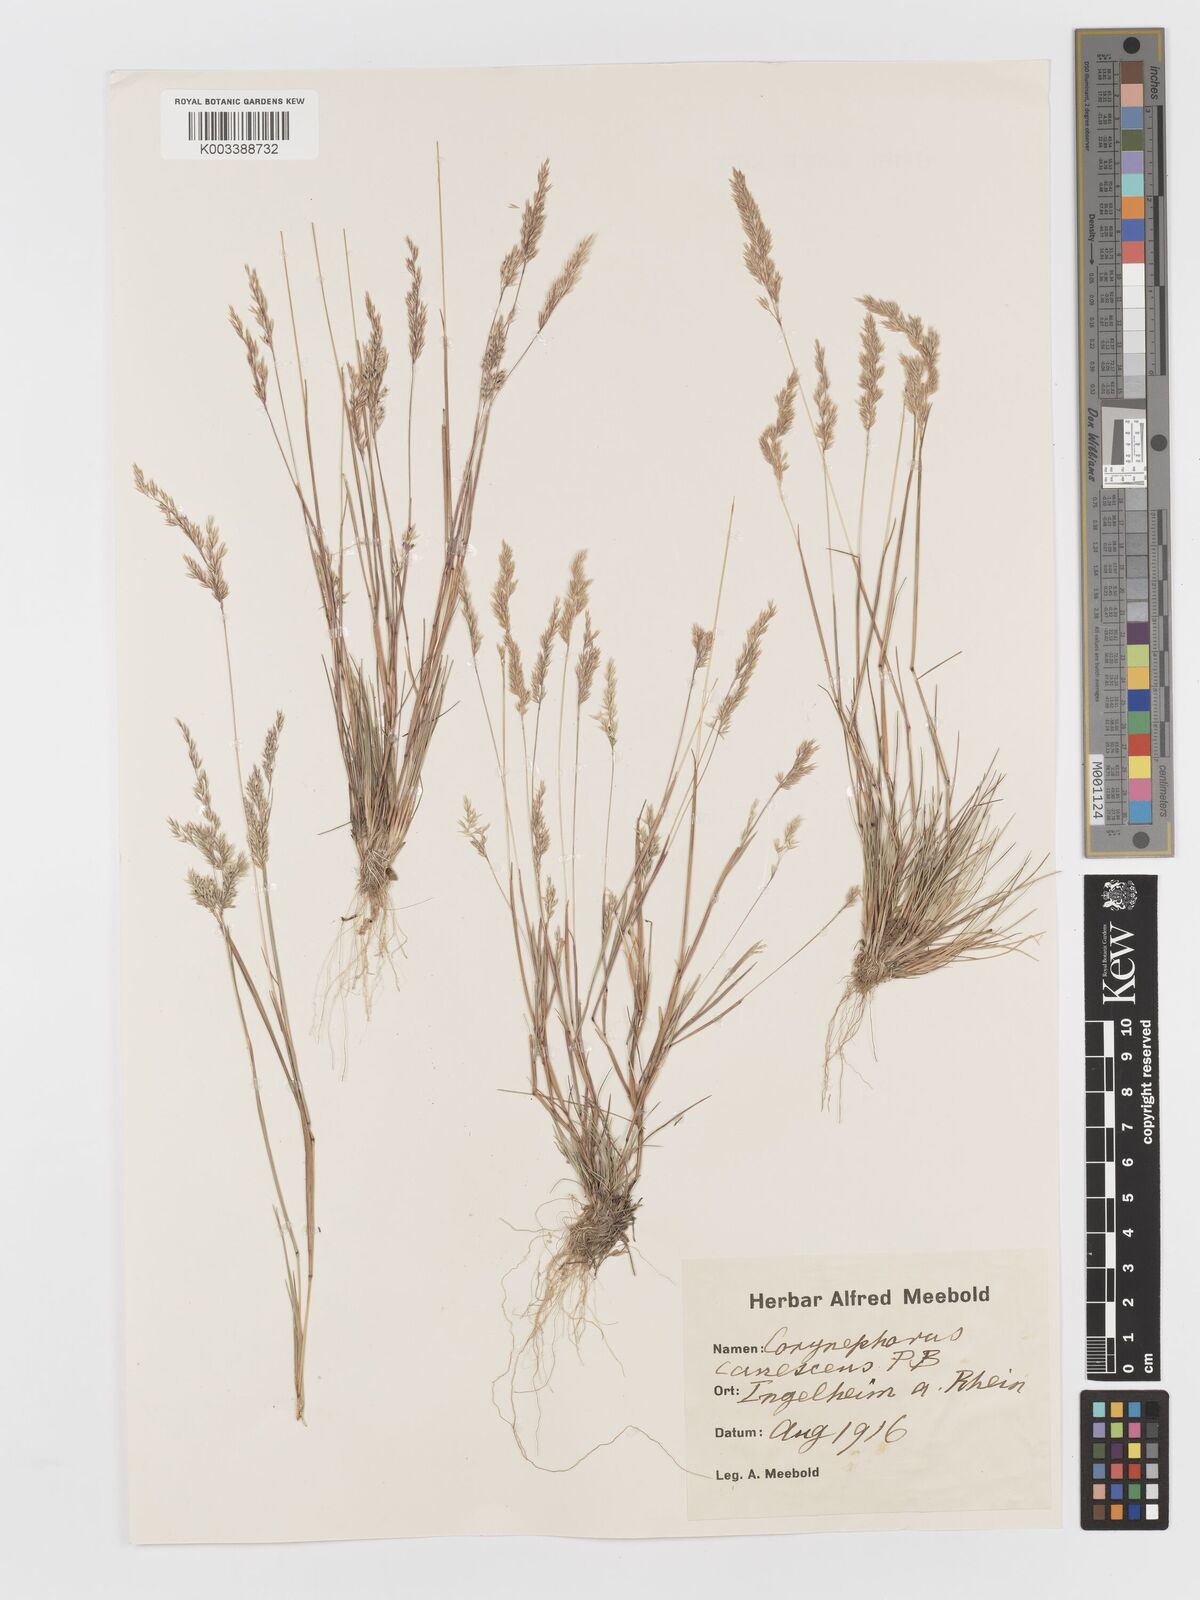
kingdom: Plantae
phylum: Tracheophyta
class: Liliopsida
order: Poales
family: Poaceae
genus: Corynephorus
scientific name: Corynephorus canescens
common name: Grey hair-grass
